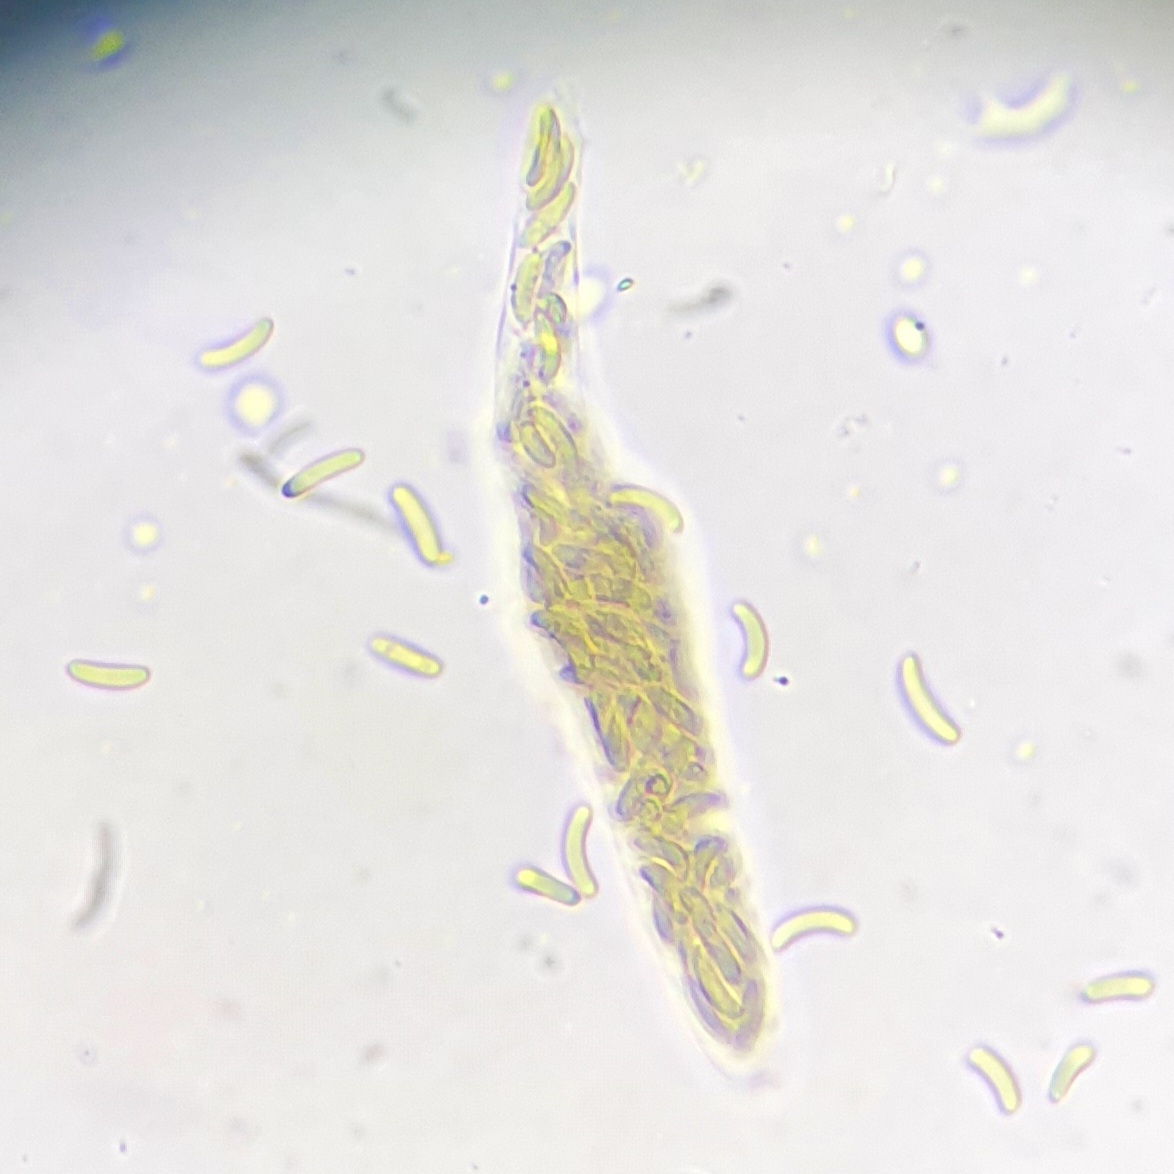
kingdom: Fungi
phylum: Ascomycota
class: Sordariomycetes
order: Xylariales
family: Diatrypaceae
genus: Diatrypella
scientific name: Diatrypella favacea
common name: klemt kulskorpe
